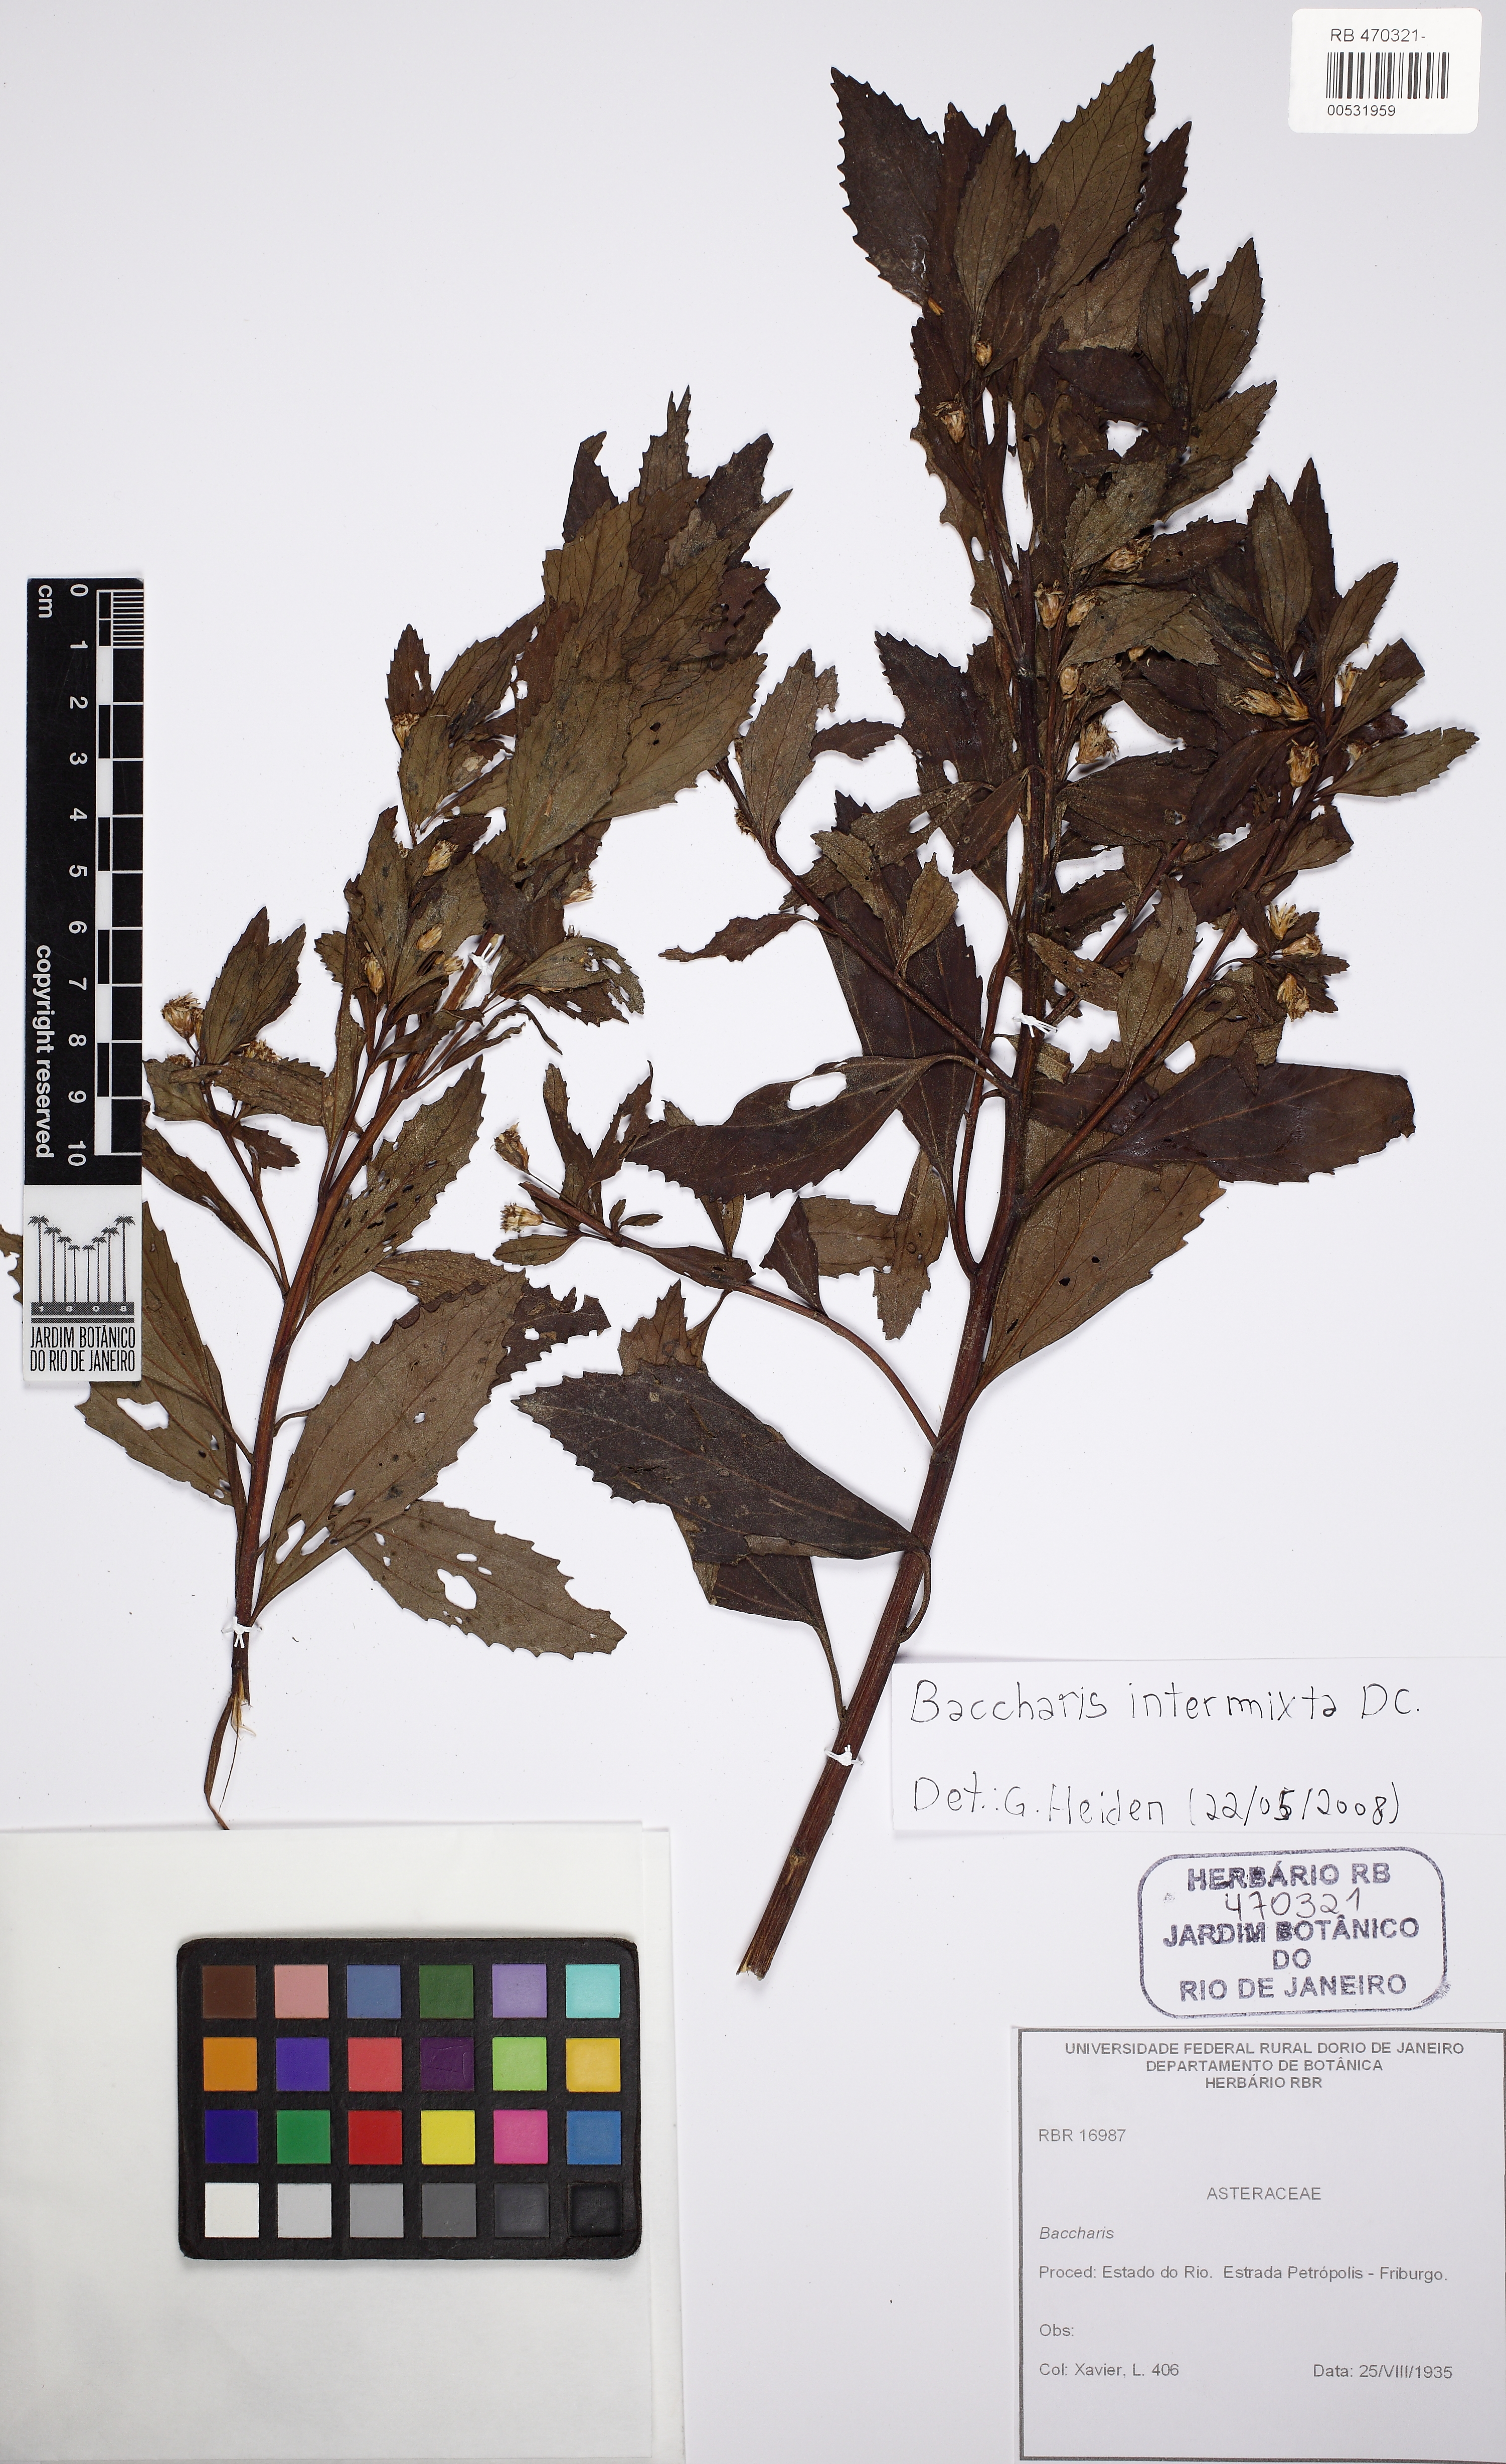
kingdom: Plantae
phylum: Tracheophyta
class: Magnoliopsida
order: Asterales
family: Asteraceae
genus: Baccharis
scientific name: Baccharis intermixta
